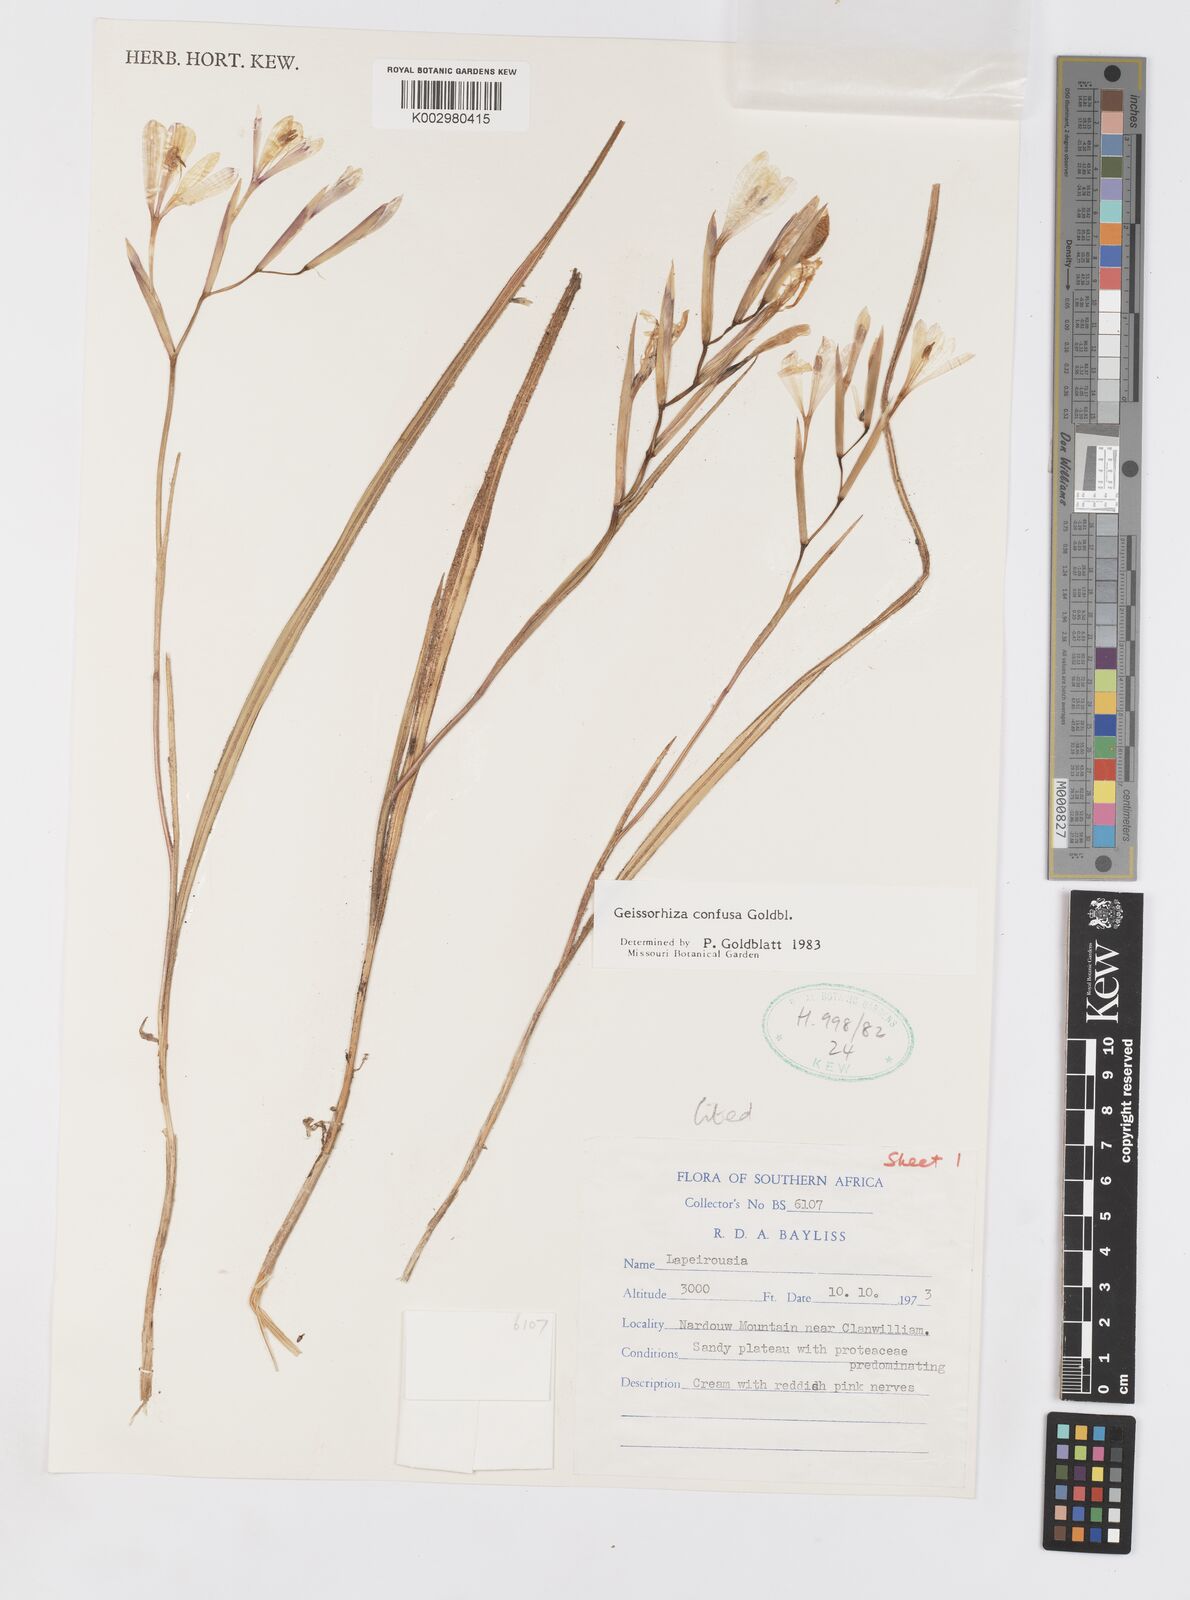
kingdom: Plantae
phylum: Tracheophyta
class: Liliopsida
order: Asparagales
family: Iridaceae
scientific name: Iridaceae
